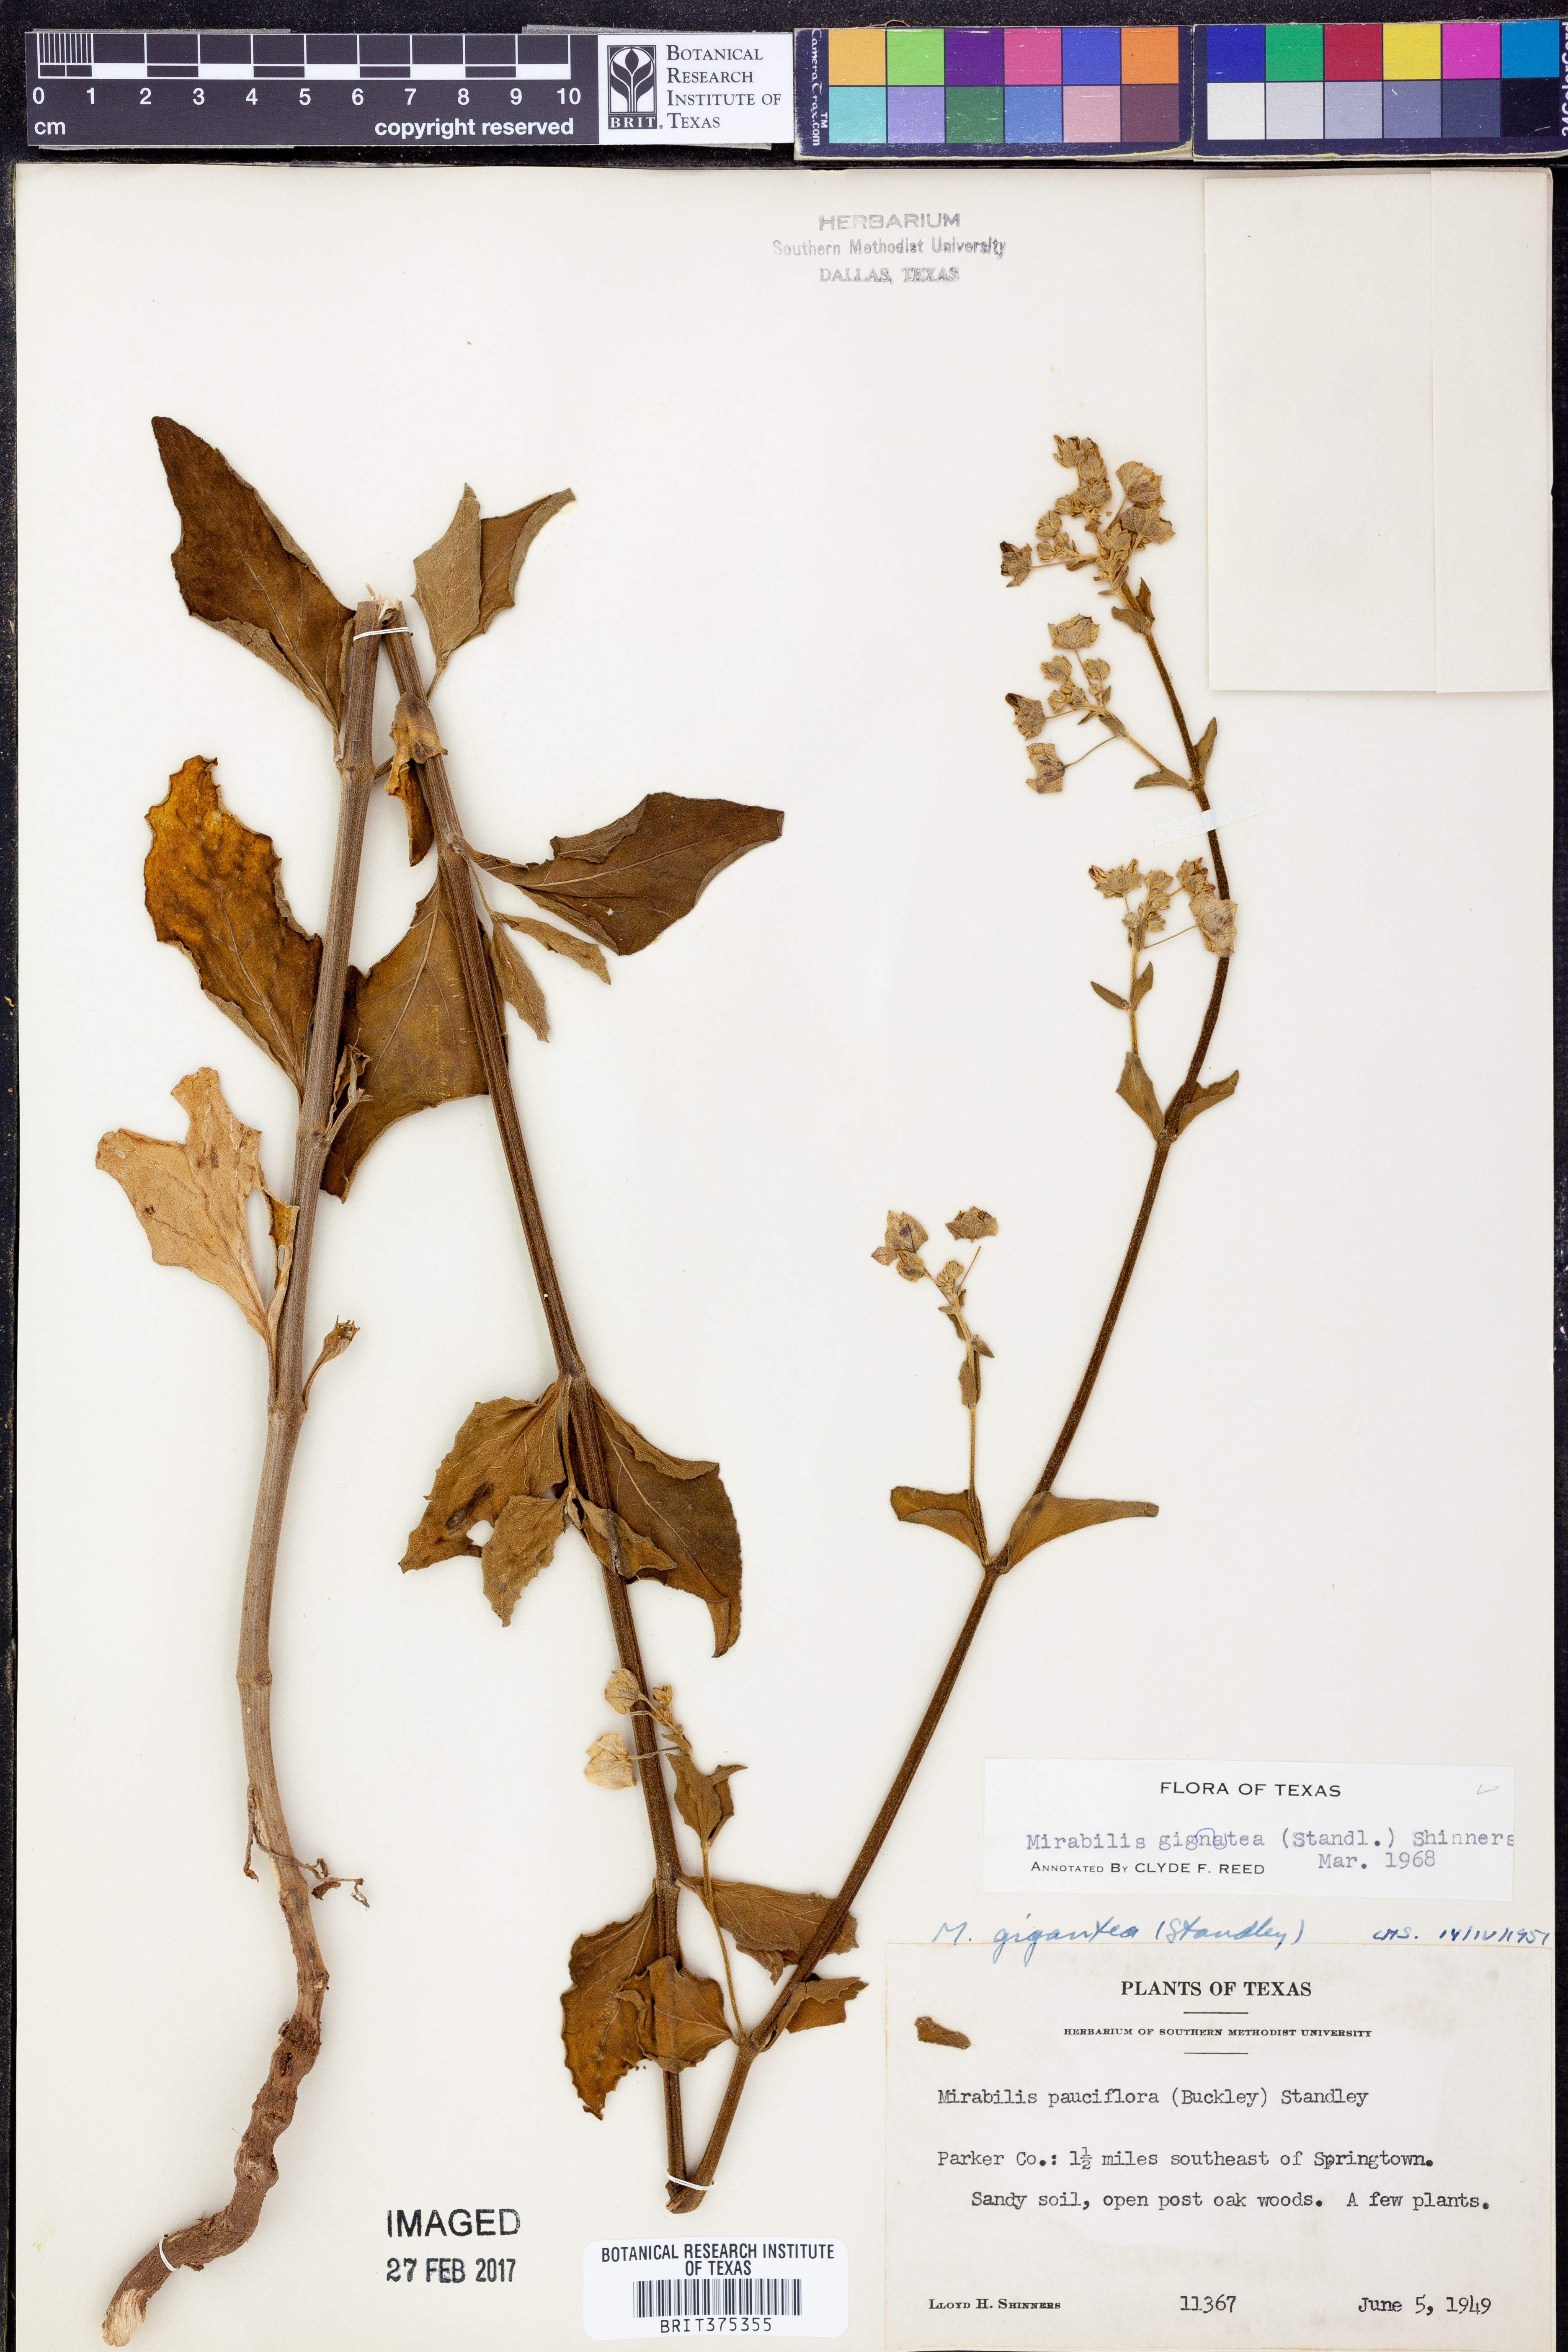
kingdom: Plantae
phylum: Tracheophyta
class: Magnoliopsida
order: Caryophyllales
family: Nyctaginaceae
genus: Mirabilis
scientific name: Mirabilis gigantea
